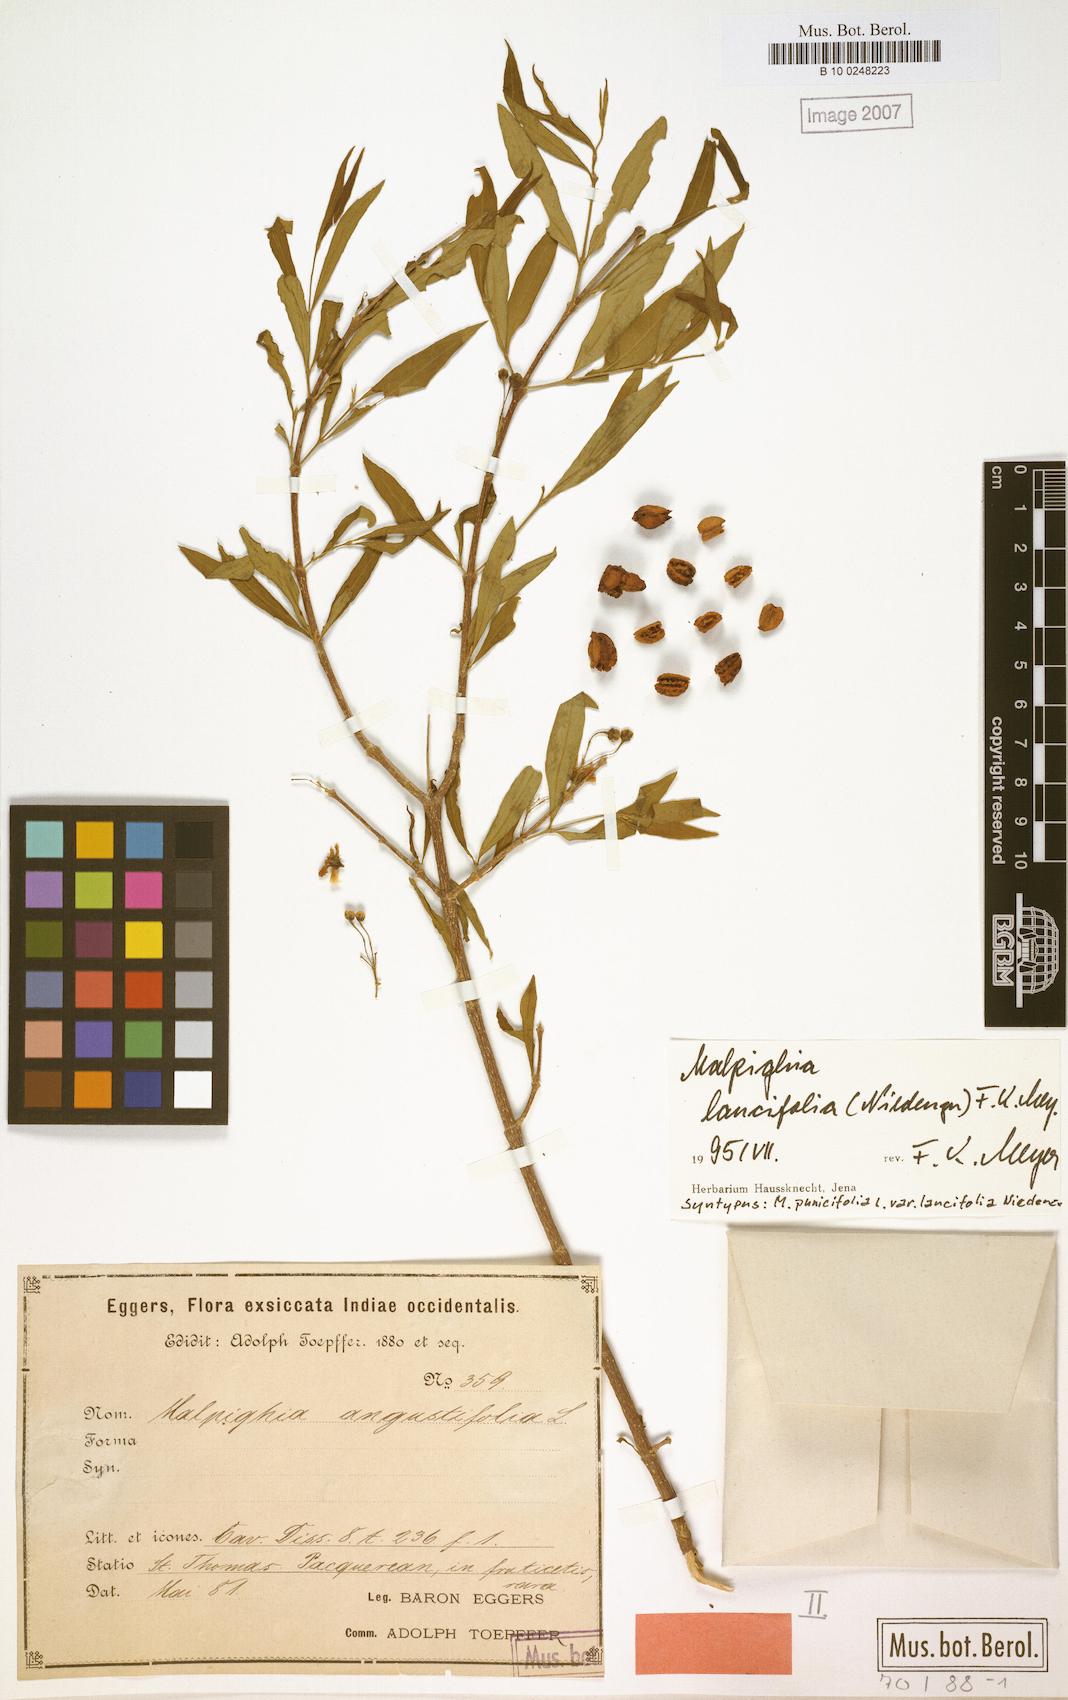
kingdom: Plantae
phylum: Tracheophyta
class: Magnoliopsida
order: Malpighiales
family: Malpighiaceae
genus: Malpighia
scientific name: Malpighia emarginata
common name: Barbados cherry
